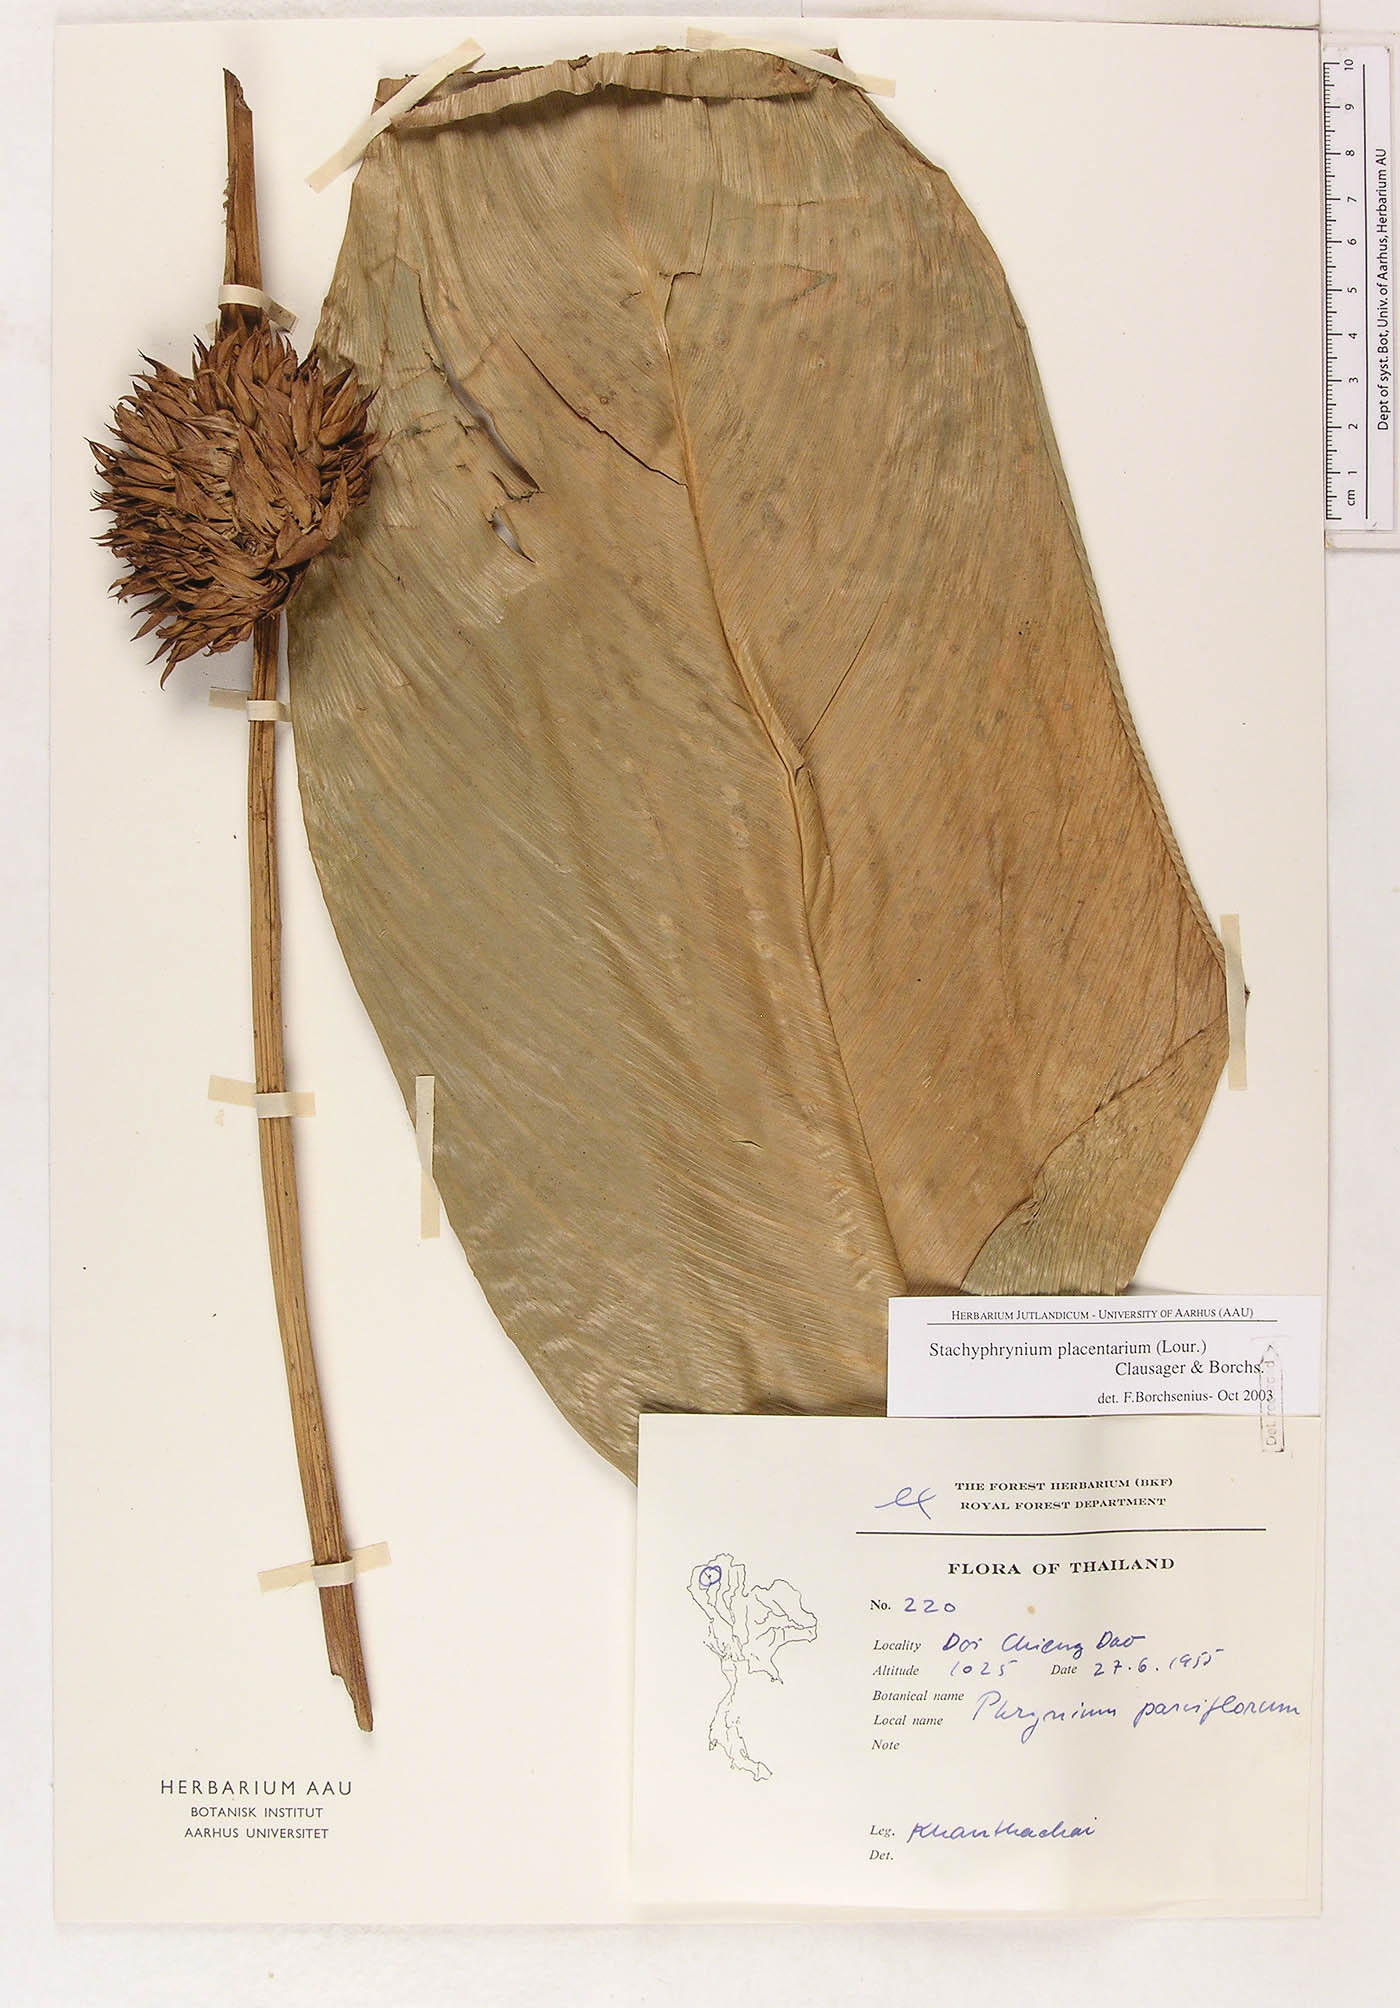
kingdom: Plantae
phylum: Tracheophyta
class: Liliopsida
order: Zingiberales
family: Marantaceae
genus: Stachyphrynium
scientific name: Stachyphrynium placentarium
